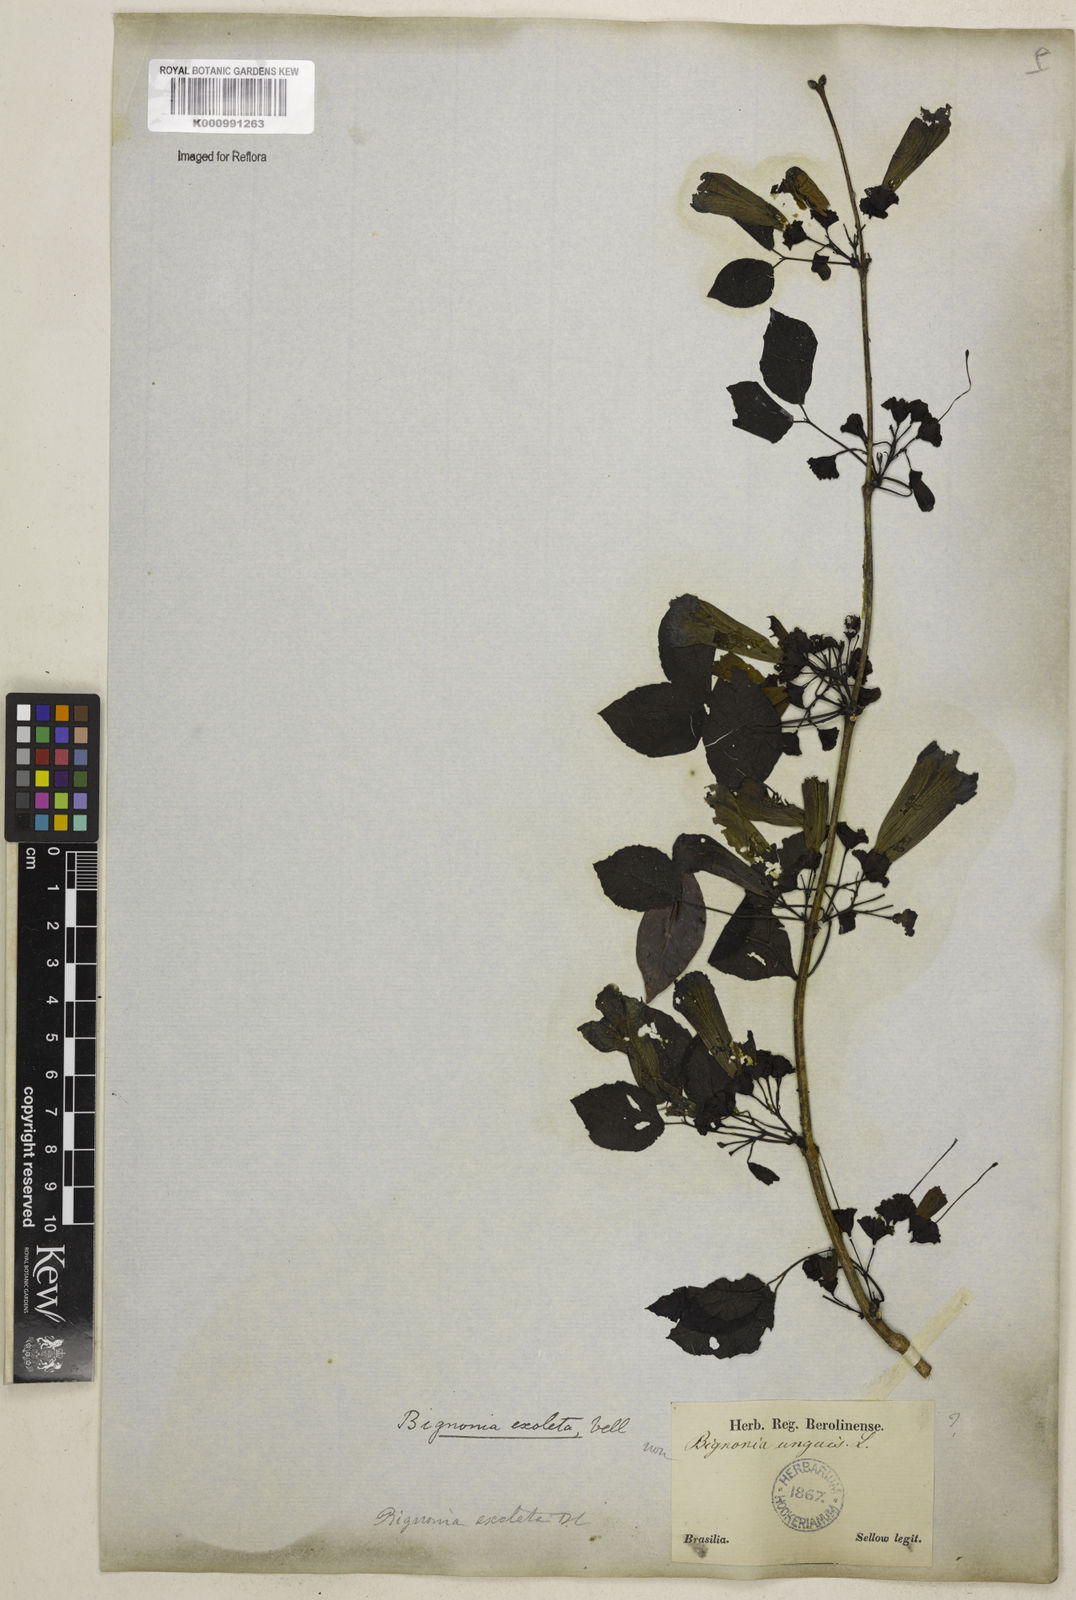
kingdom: Plantae
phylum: Tracheophyta
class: Magnoliopsida
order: Lamiales
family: Bignoniaceae
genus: Dolichandra
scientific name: Dolichandra unguis-cati
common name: Catclaw vine
